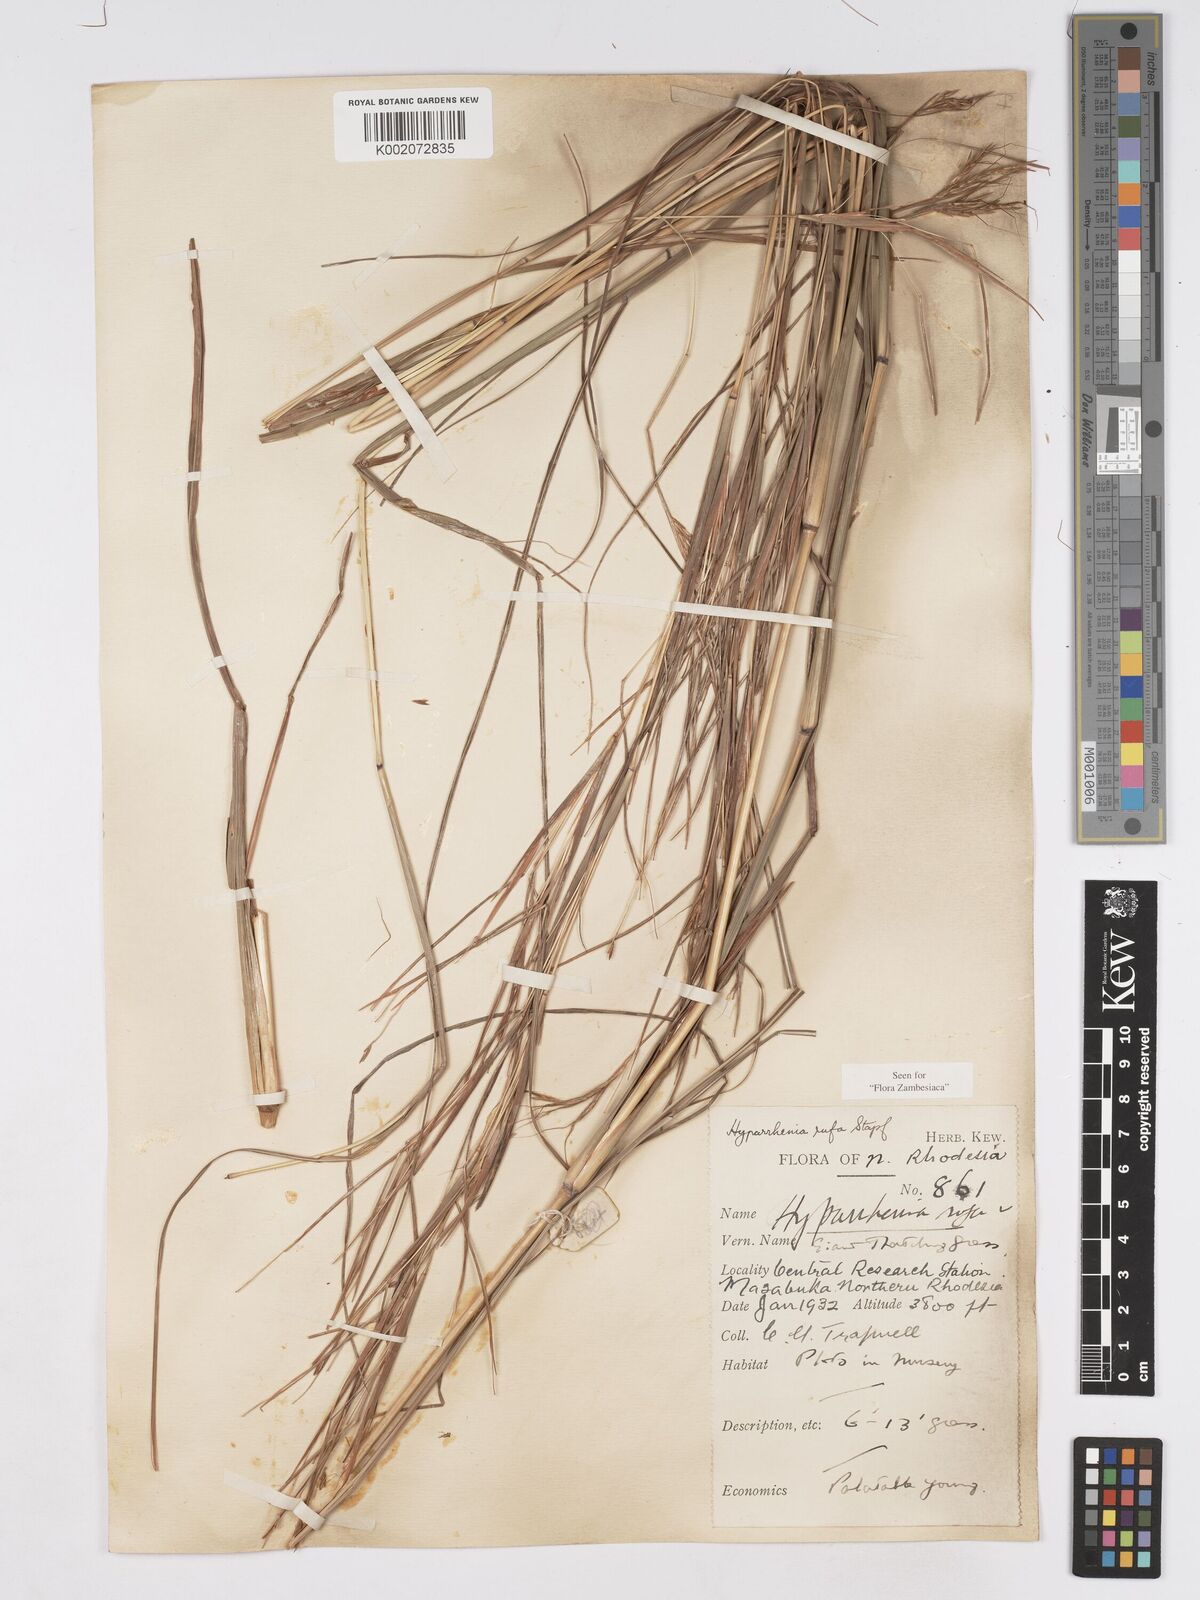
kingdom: Plantae
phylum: Tracheophyta
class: Liliopsida
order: Poales
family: Poaceae
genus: Hyparrhenia
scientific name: Hyparrhenia rufa
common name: Jaraguagrass
